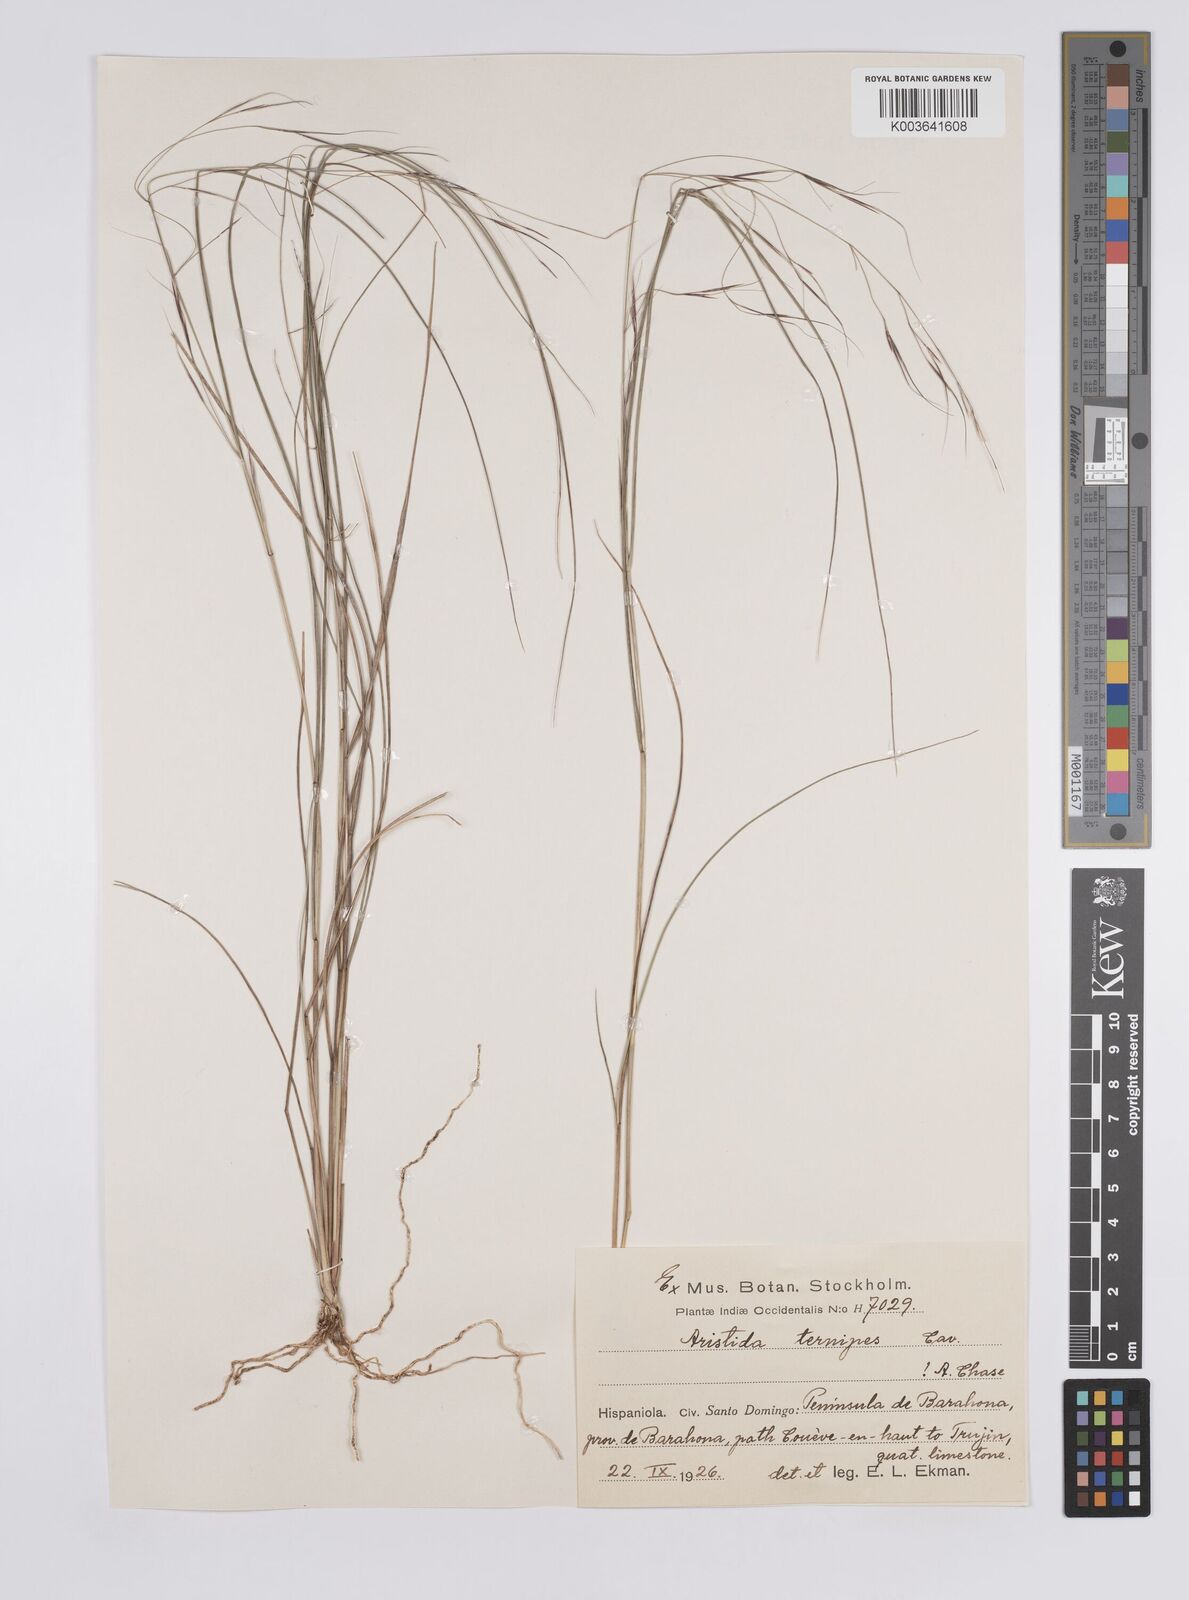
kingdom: Plantae
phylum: Tracheophyta
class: Liliopsida
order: Poales
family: Poaceae
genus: Aristida
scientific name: Aristida ternipes
